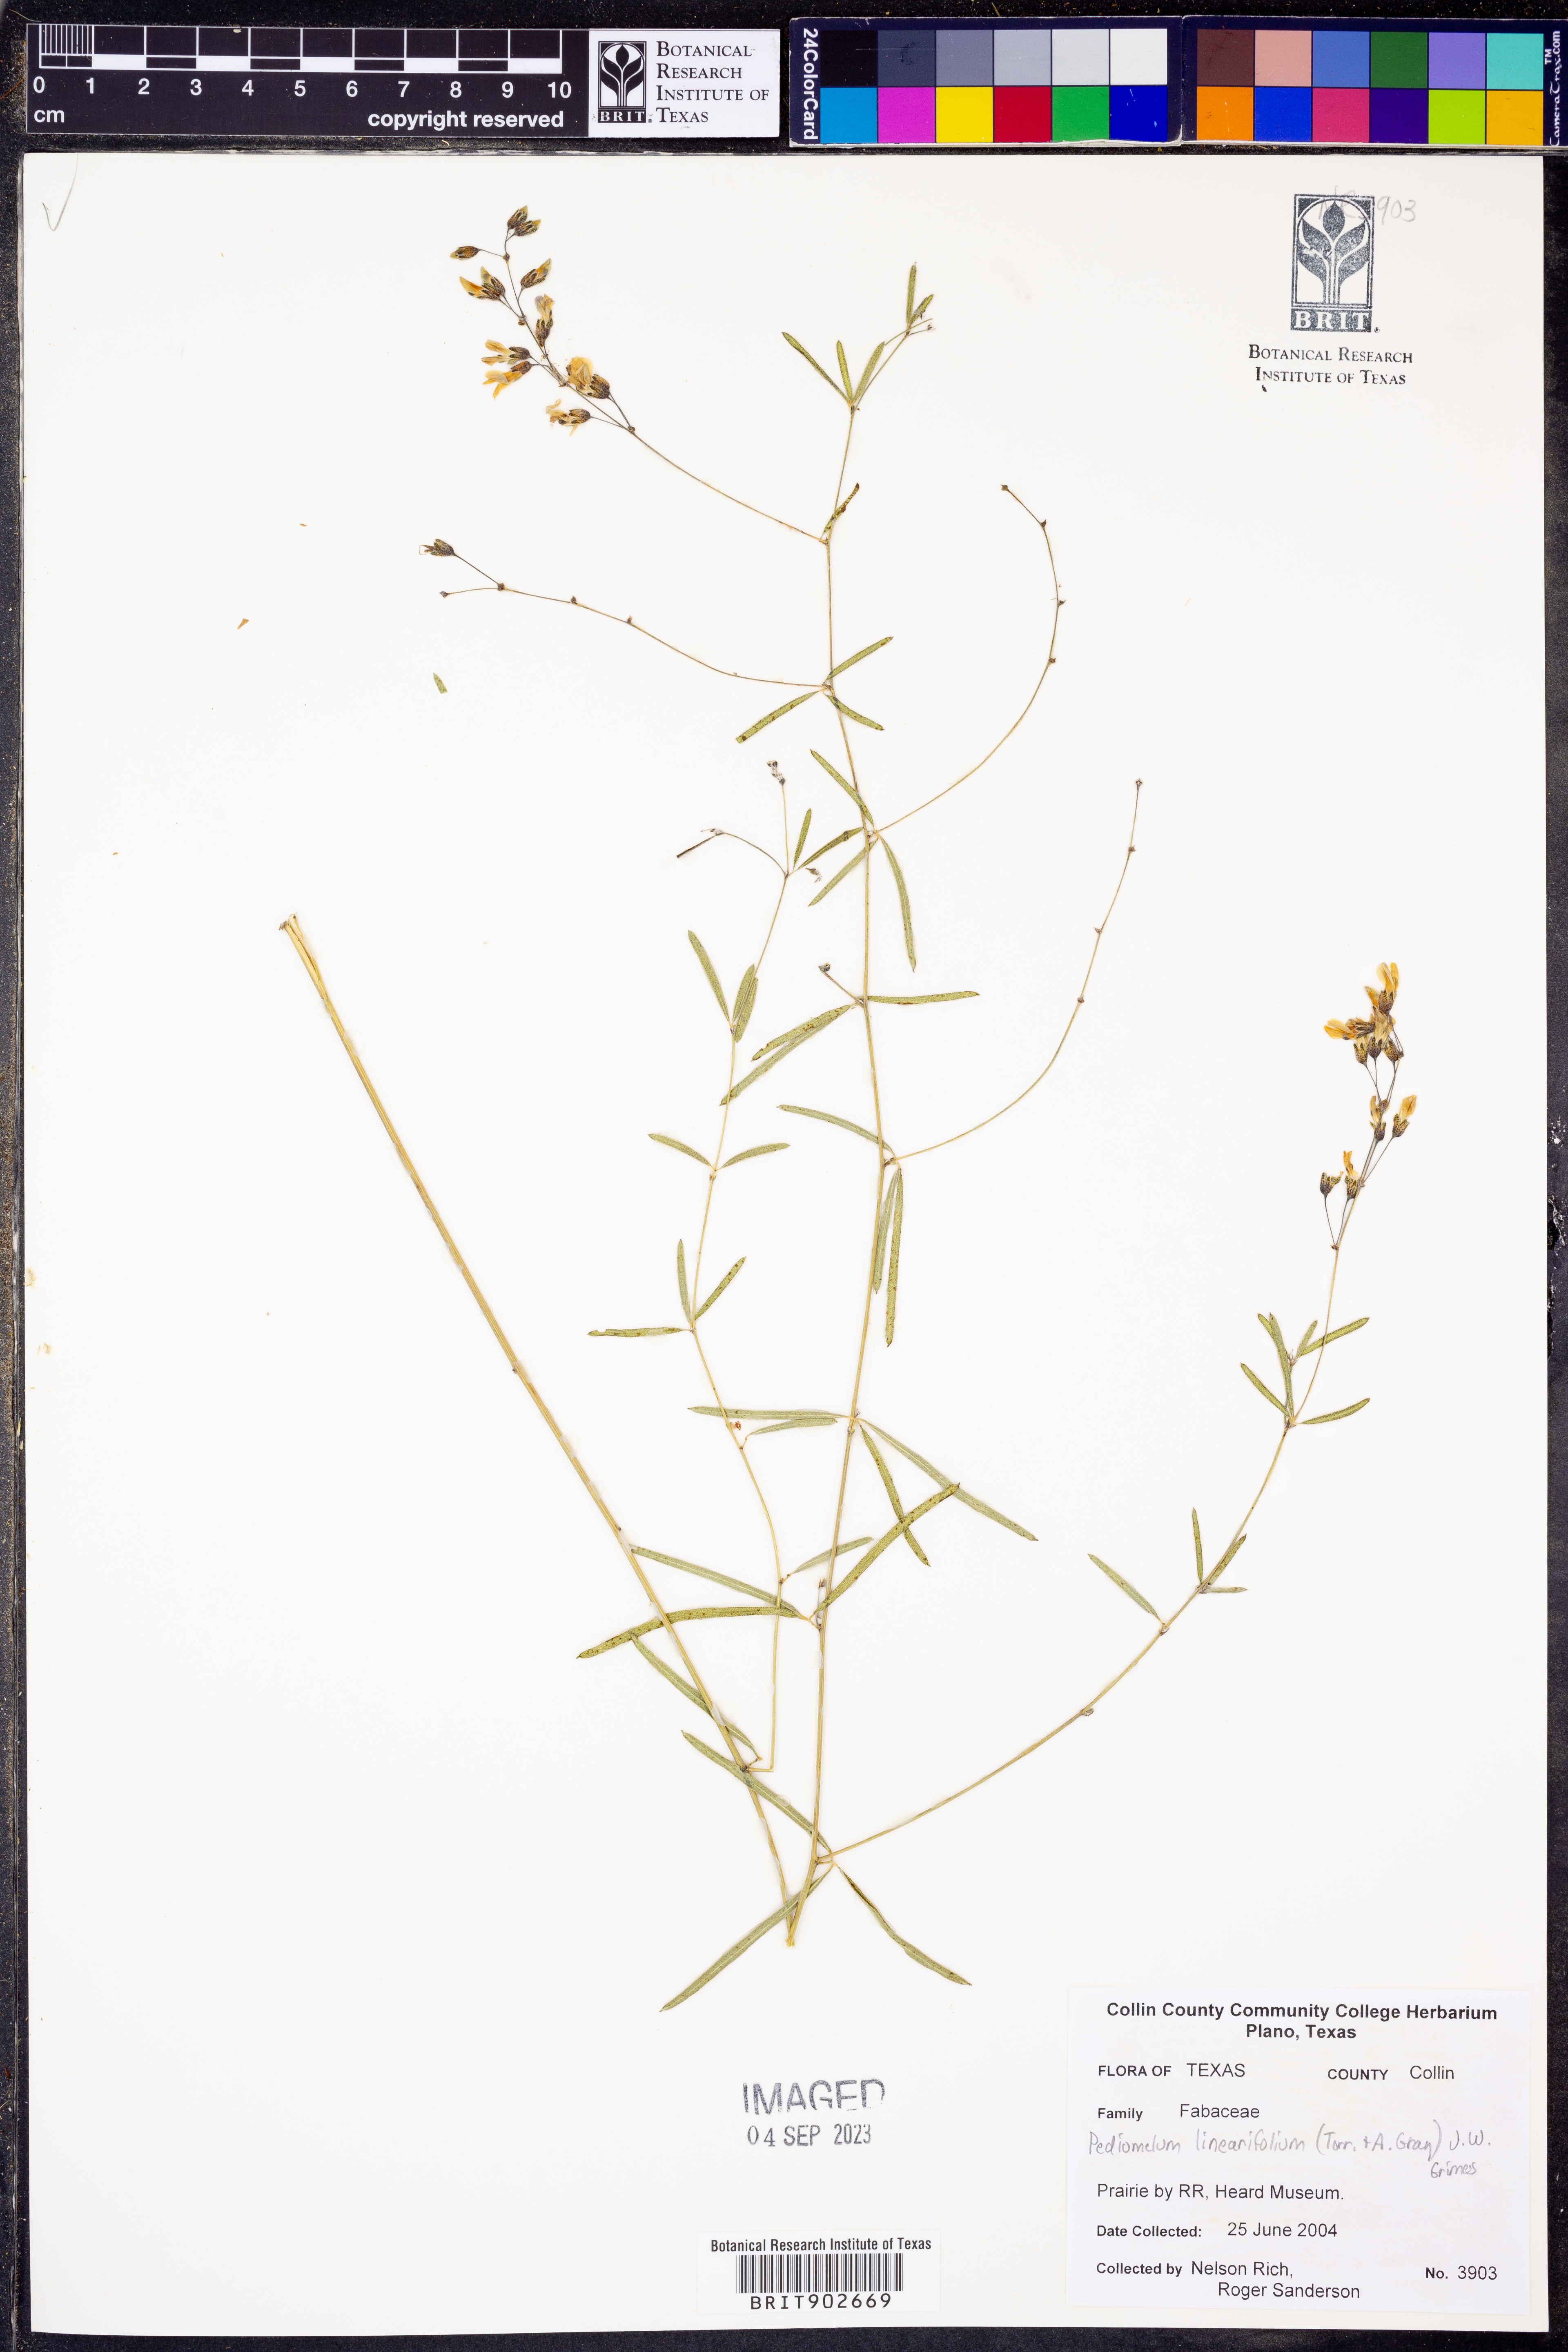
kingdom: Plantae
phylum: Tracheophyta
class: Magnoliopsida
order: Fabales
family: Fabaceae
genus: Pediomelum
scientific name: Pediomelum linearifolium
